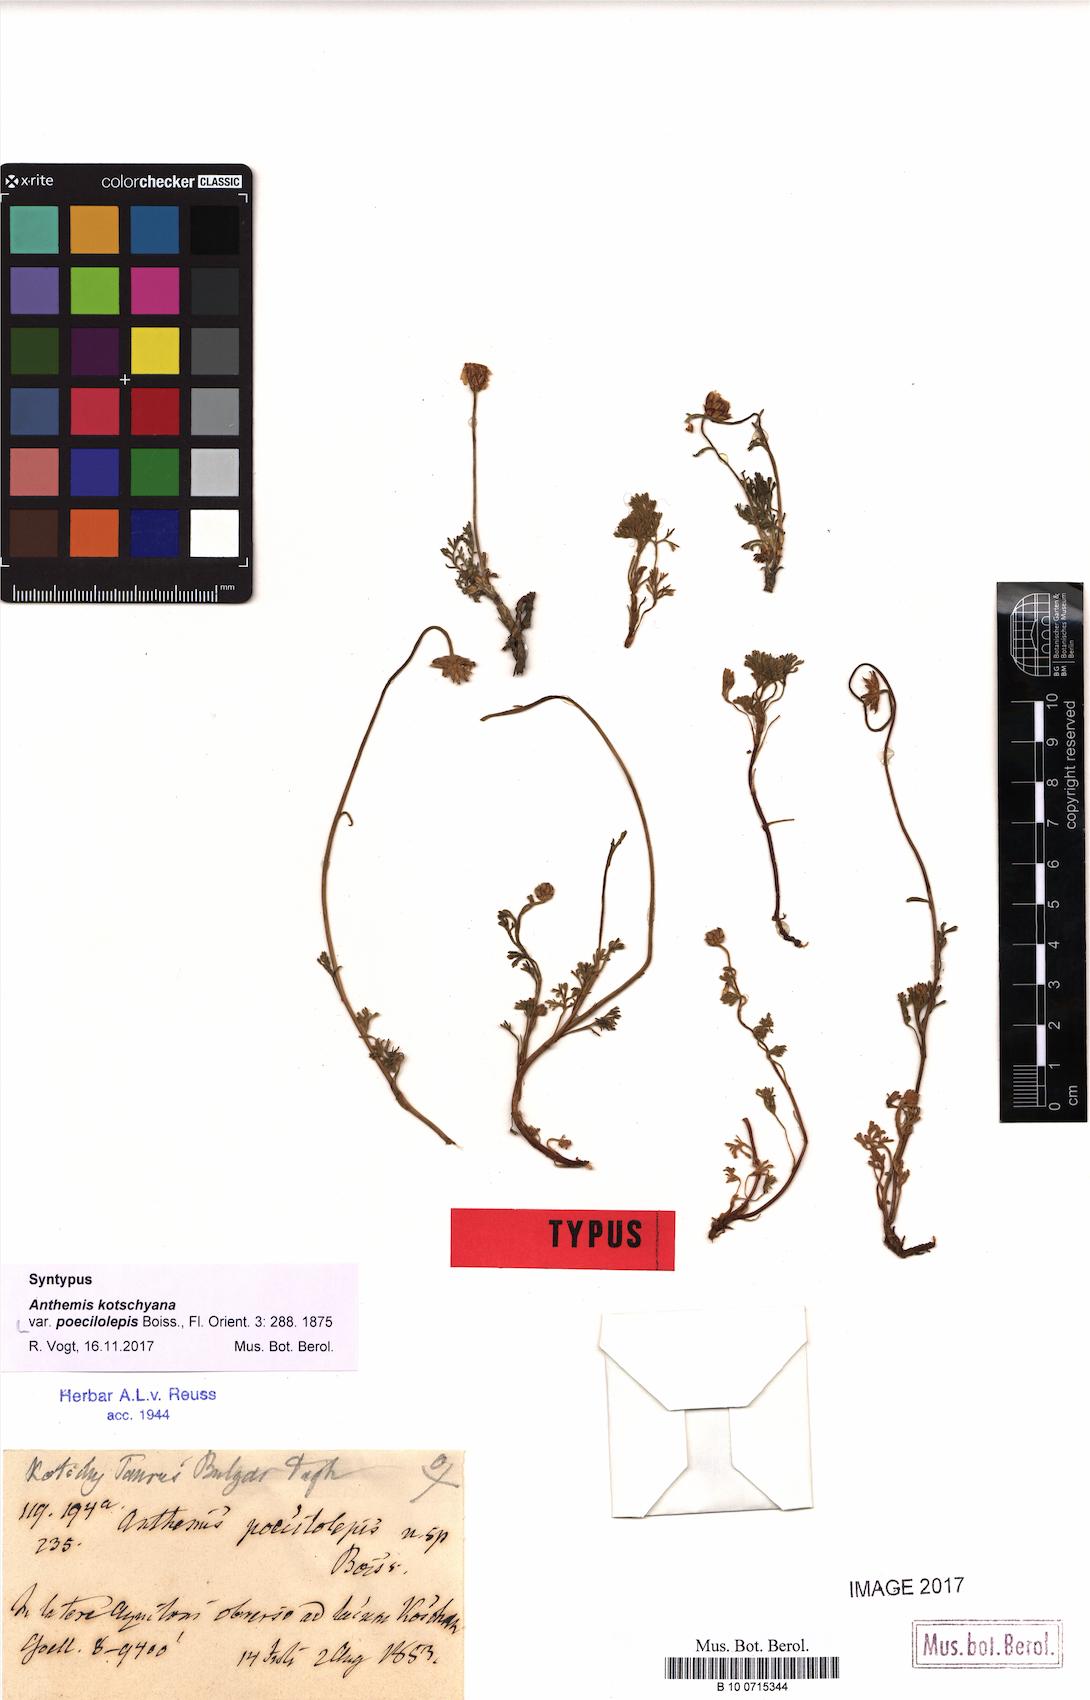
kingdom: Plantae
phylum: Tracheophyta
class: Magnoliopsida
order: Asterales
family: Asteraceae
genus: Anthemis
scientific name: Anthemis kotschyana
